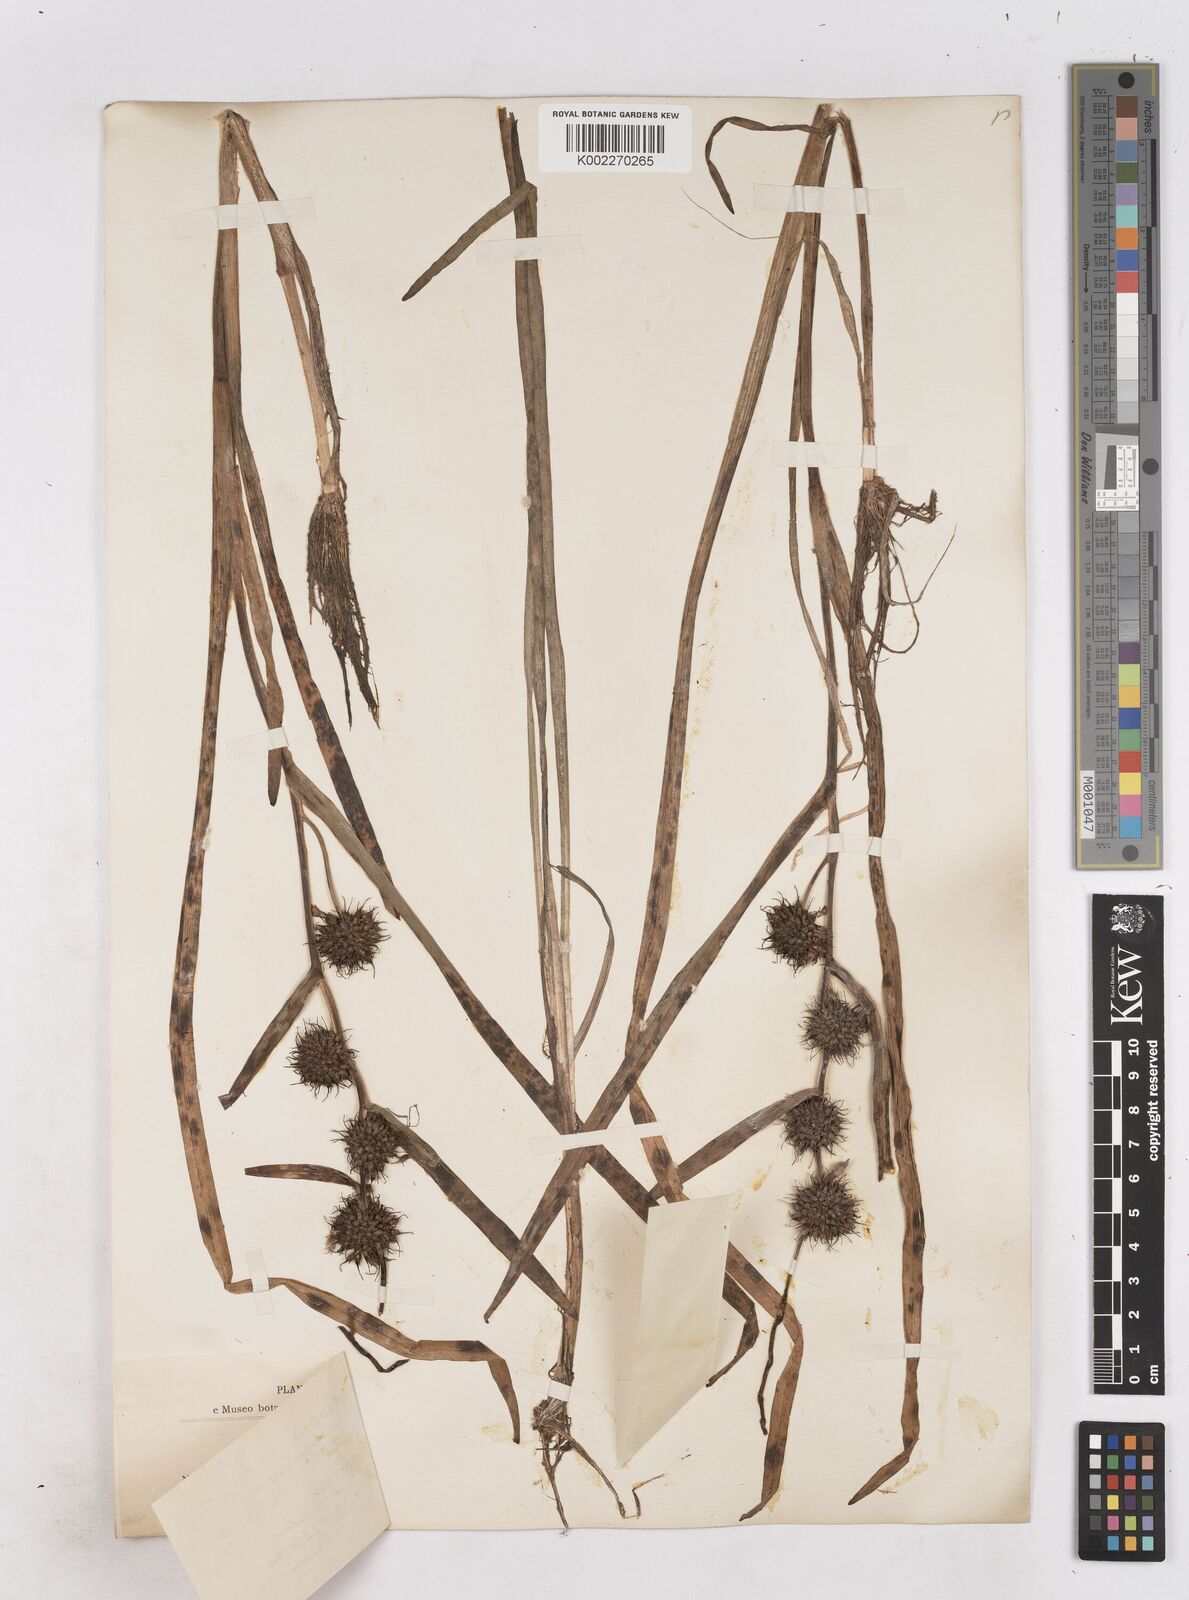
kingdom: Plantae
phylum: Tracheophyta
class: Liliopsida
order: Poales
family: Typhaceae
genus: Sparganium
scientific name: Sparganium emersum
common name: Unbranched bur-reed
